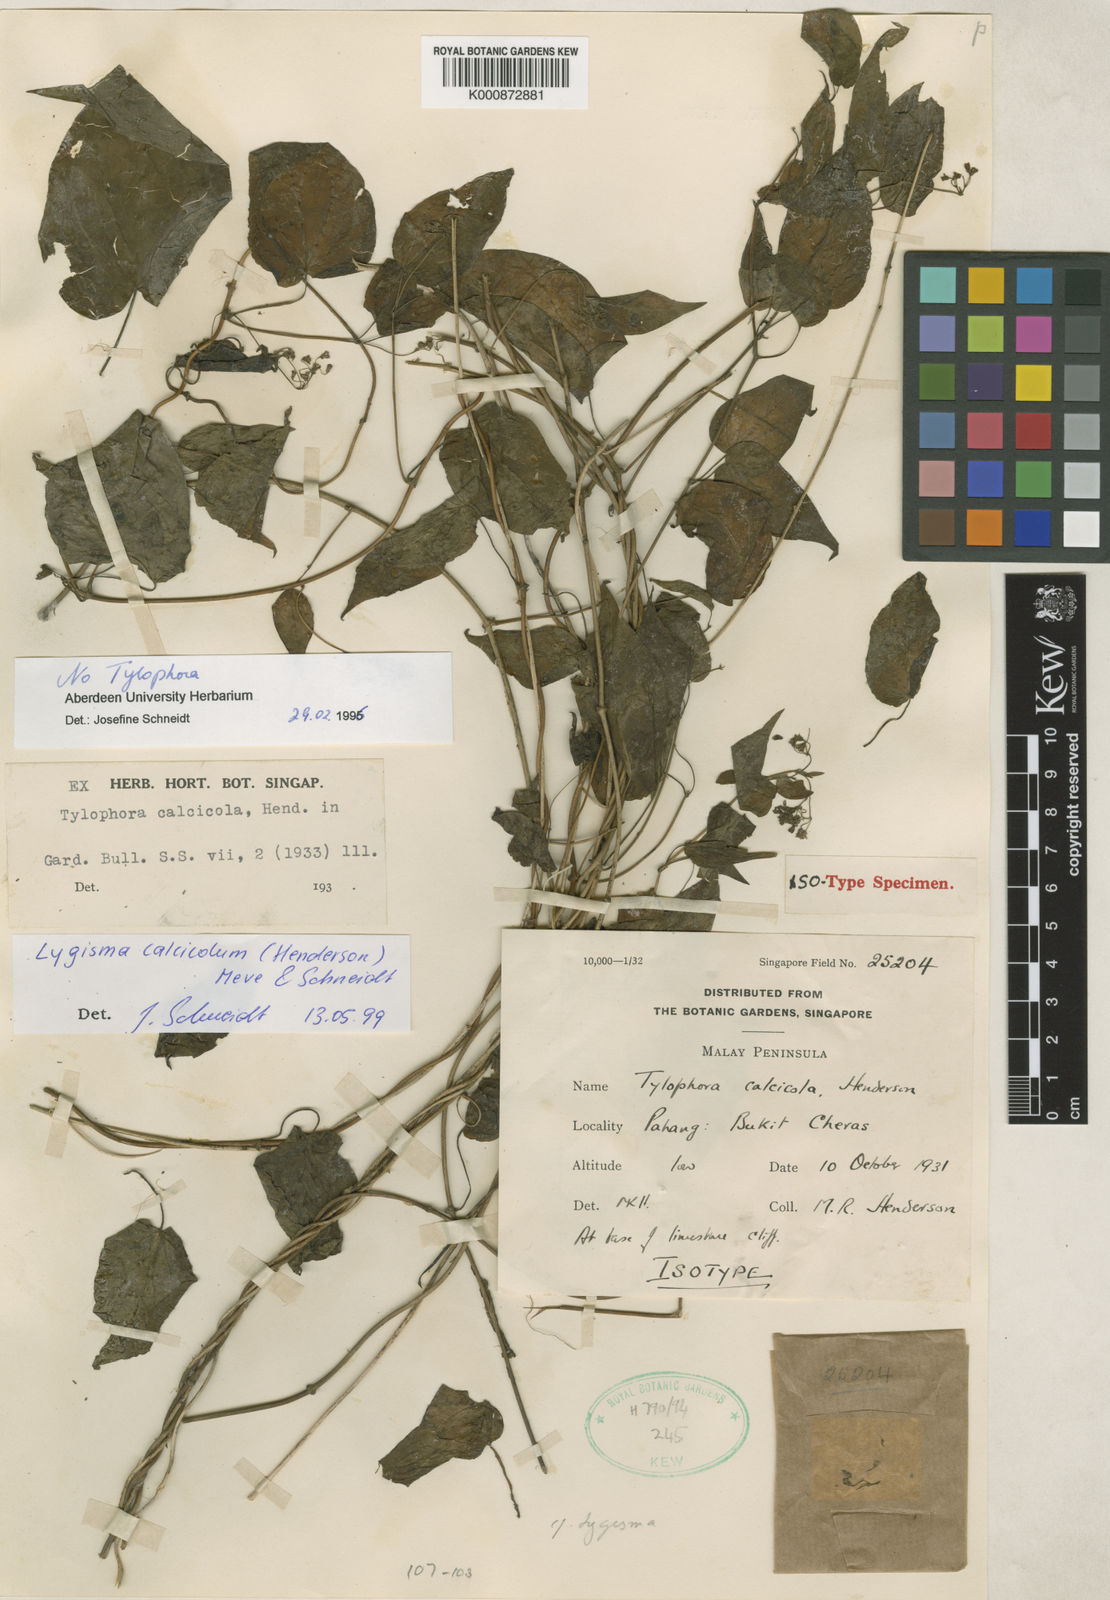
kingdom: Plantae
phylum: Tracheophyta
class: Magnoliopsida
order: Gentianales
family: Apocynaceae
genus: Lygisma
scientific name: Lygisma
